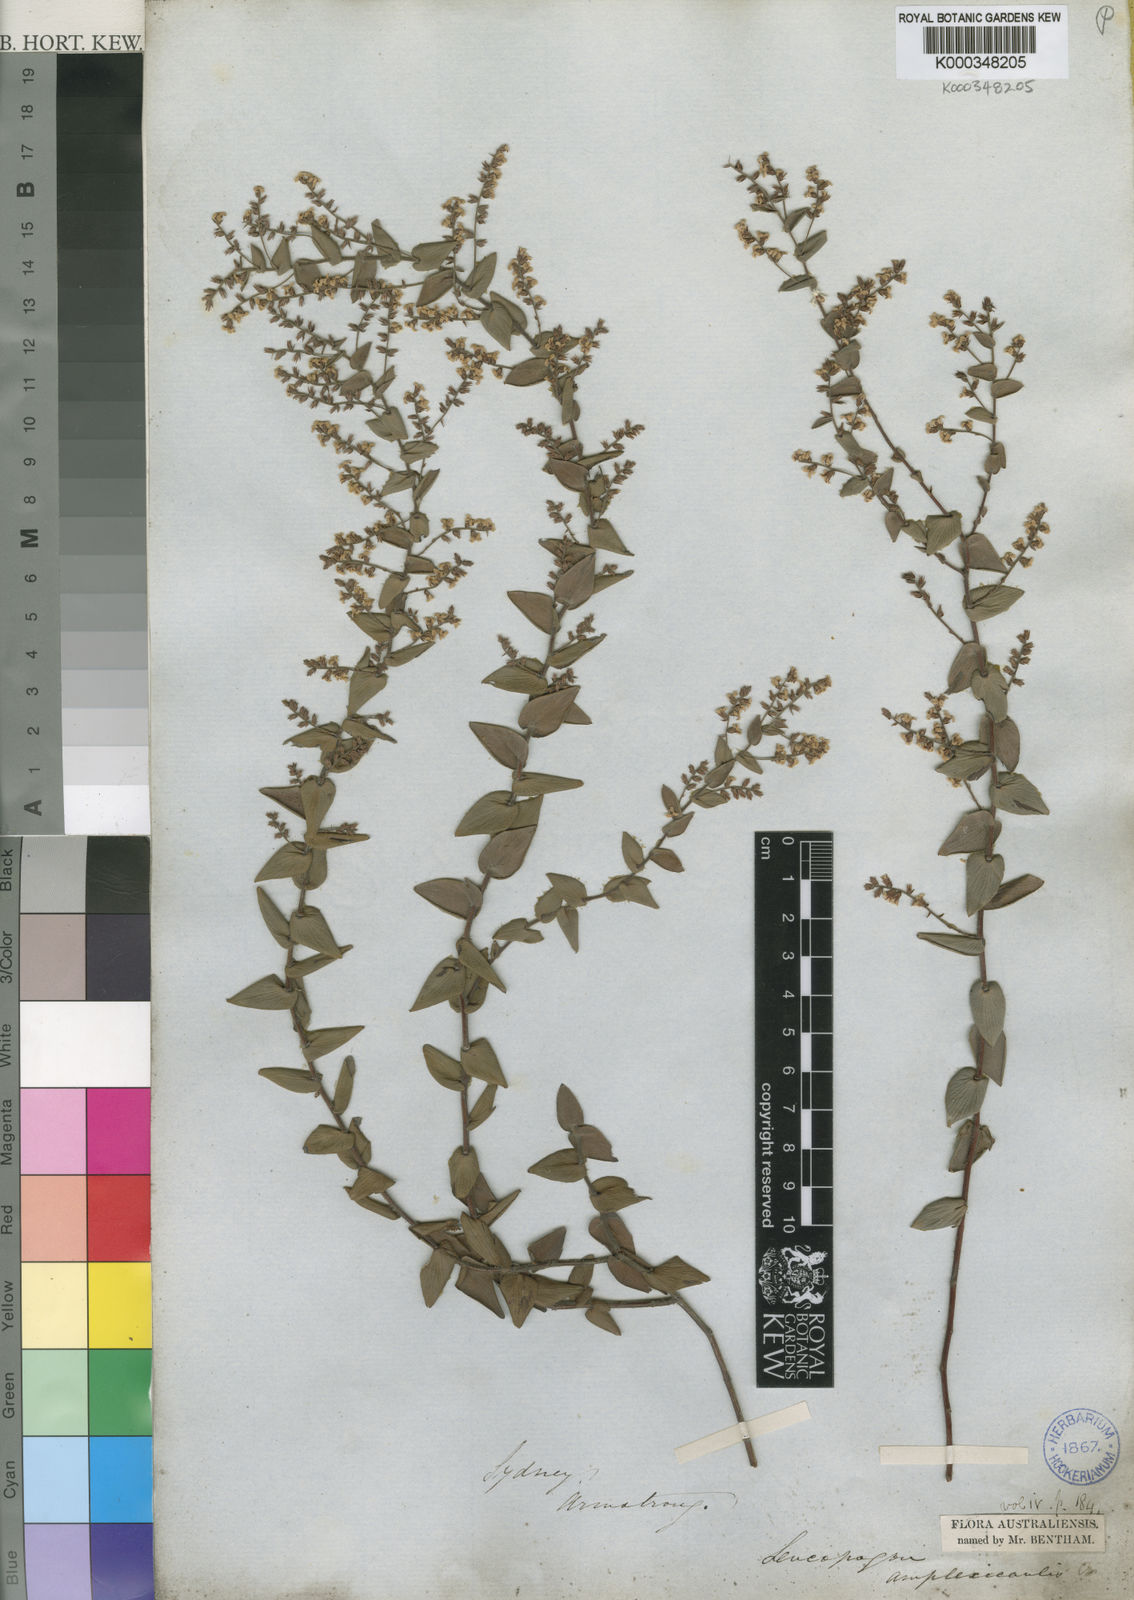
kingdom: Plantae
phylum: Tracheophyta
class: Magnoliopsida
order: Ericales
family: Ericaceae
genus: Leucopogon
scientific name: Leucopogon amplexicaulis
